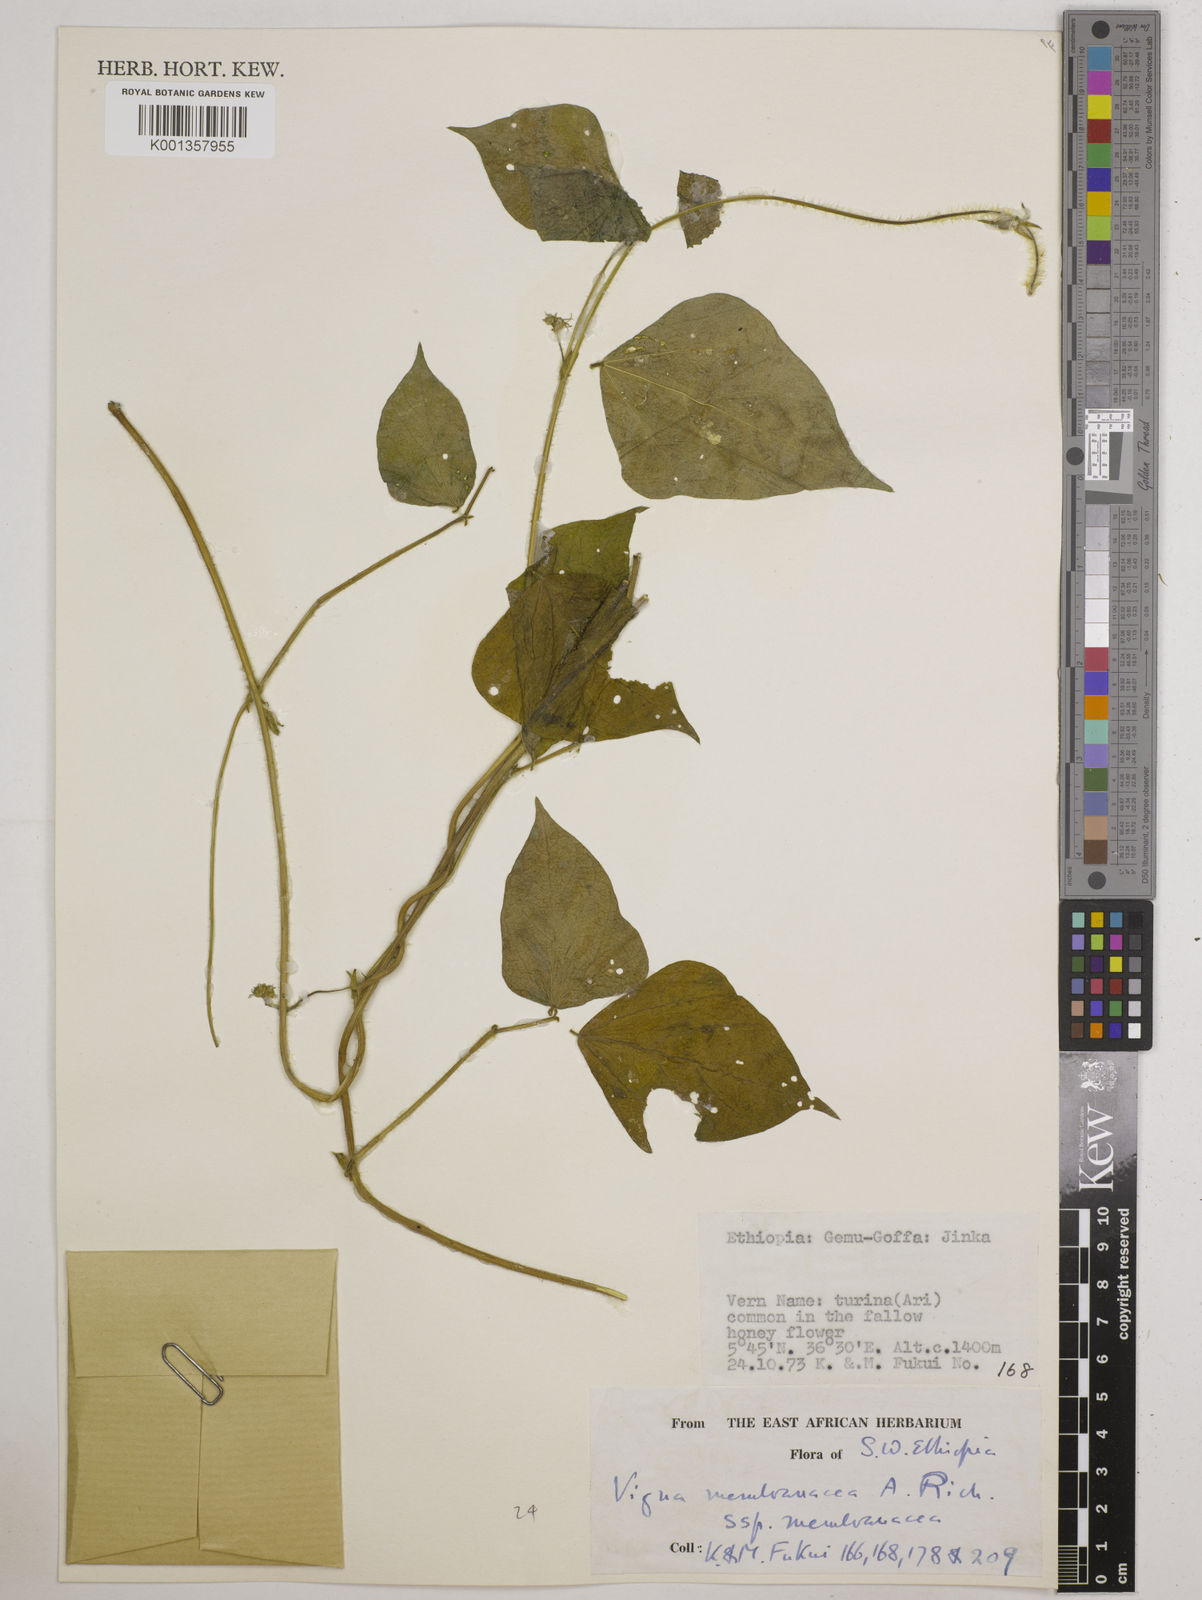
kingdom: Plantae
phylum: Tracheophyta
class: Magnoliopsida
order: Fabales
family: Fabaceae
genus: Vigna
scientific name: Vigna membranacea
